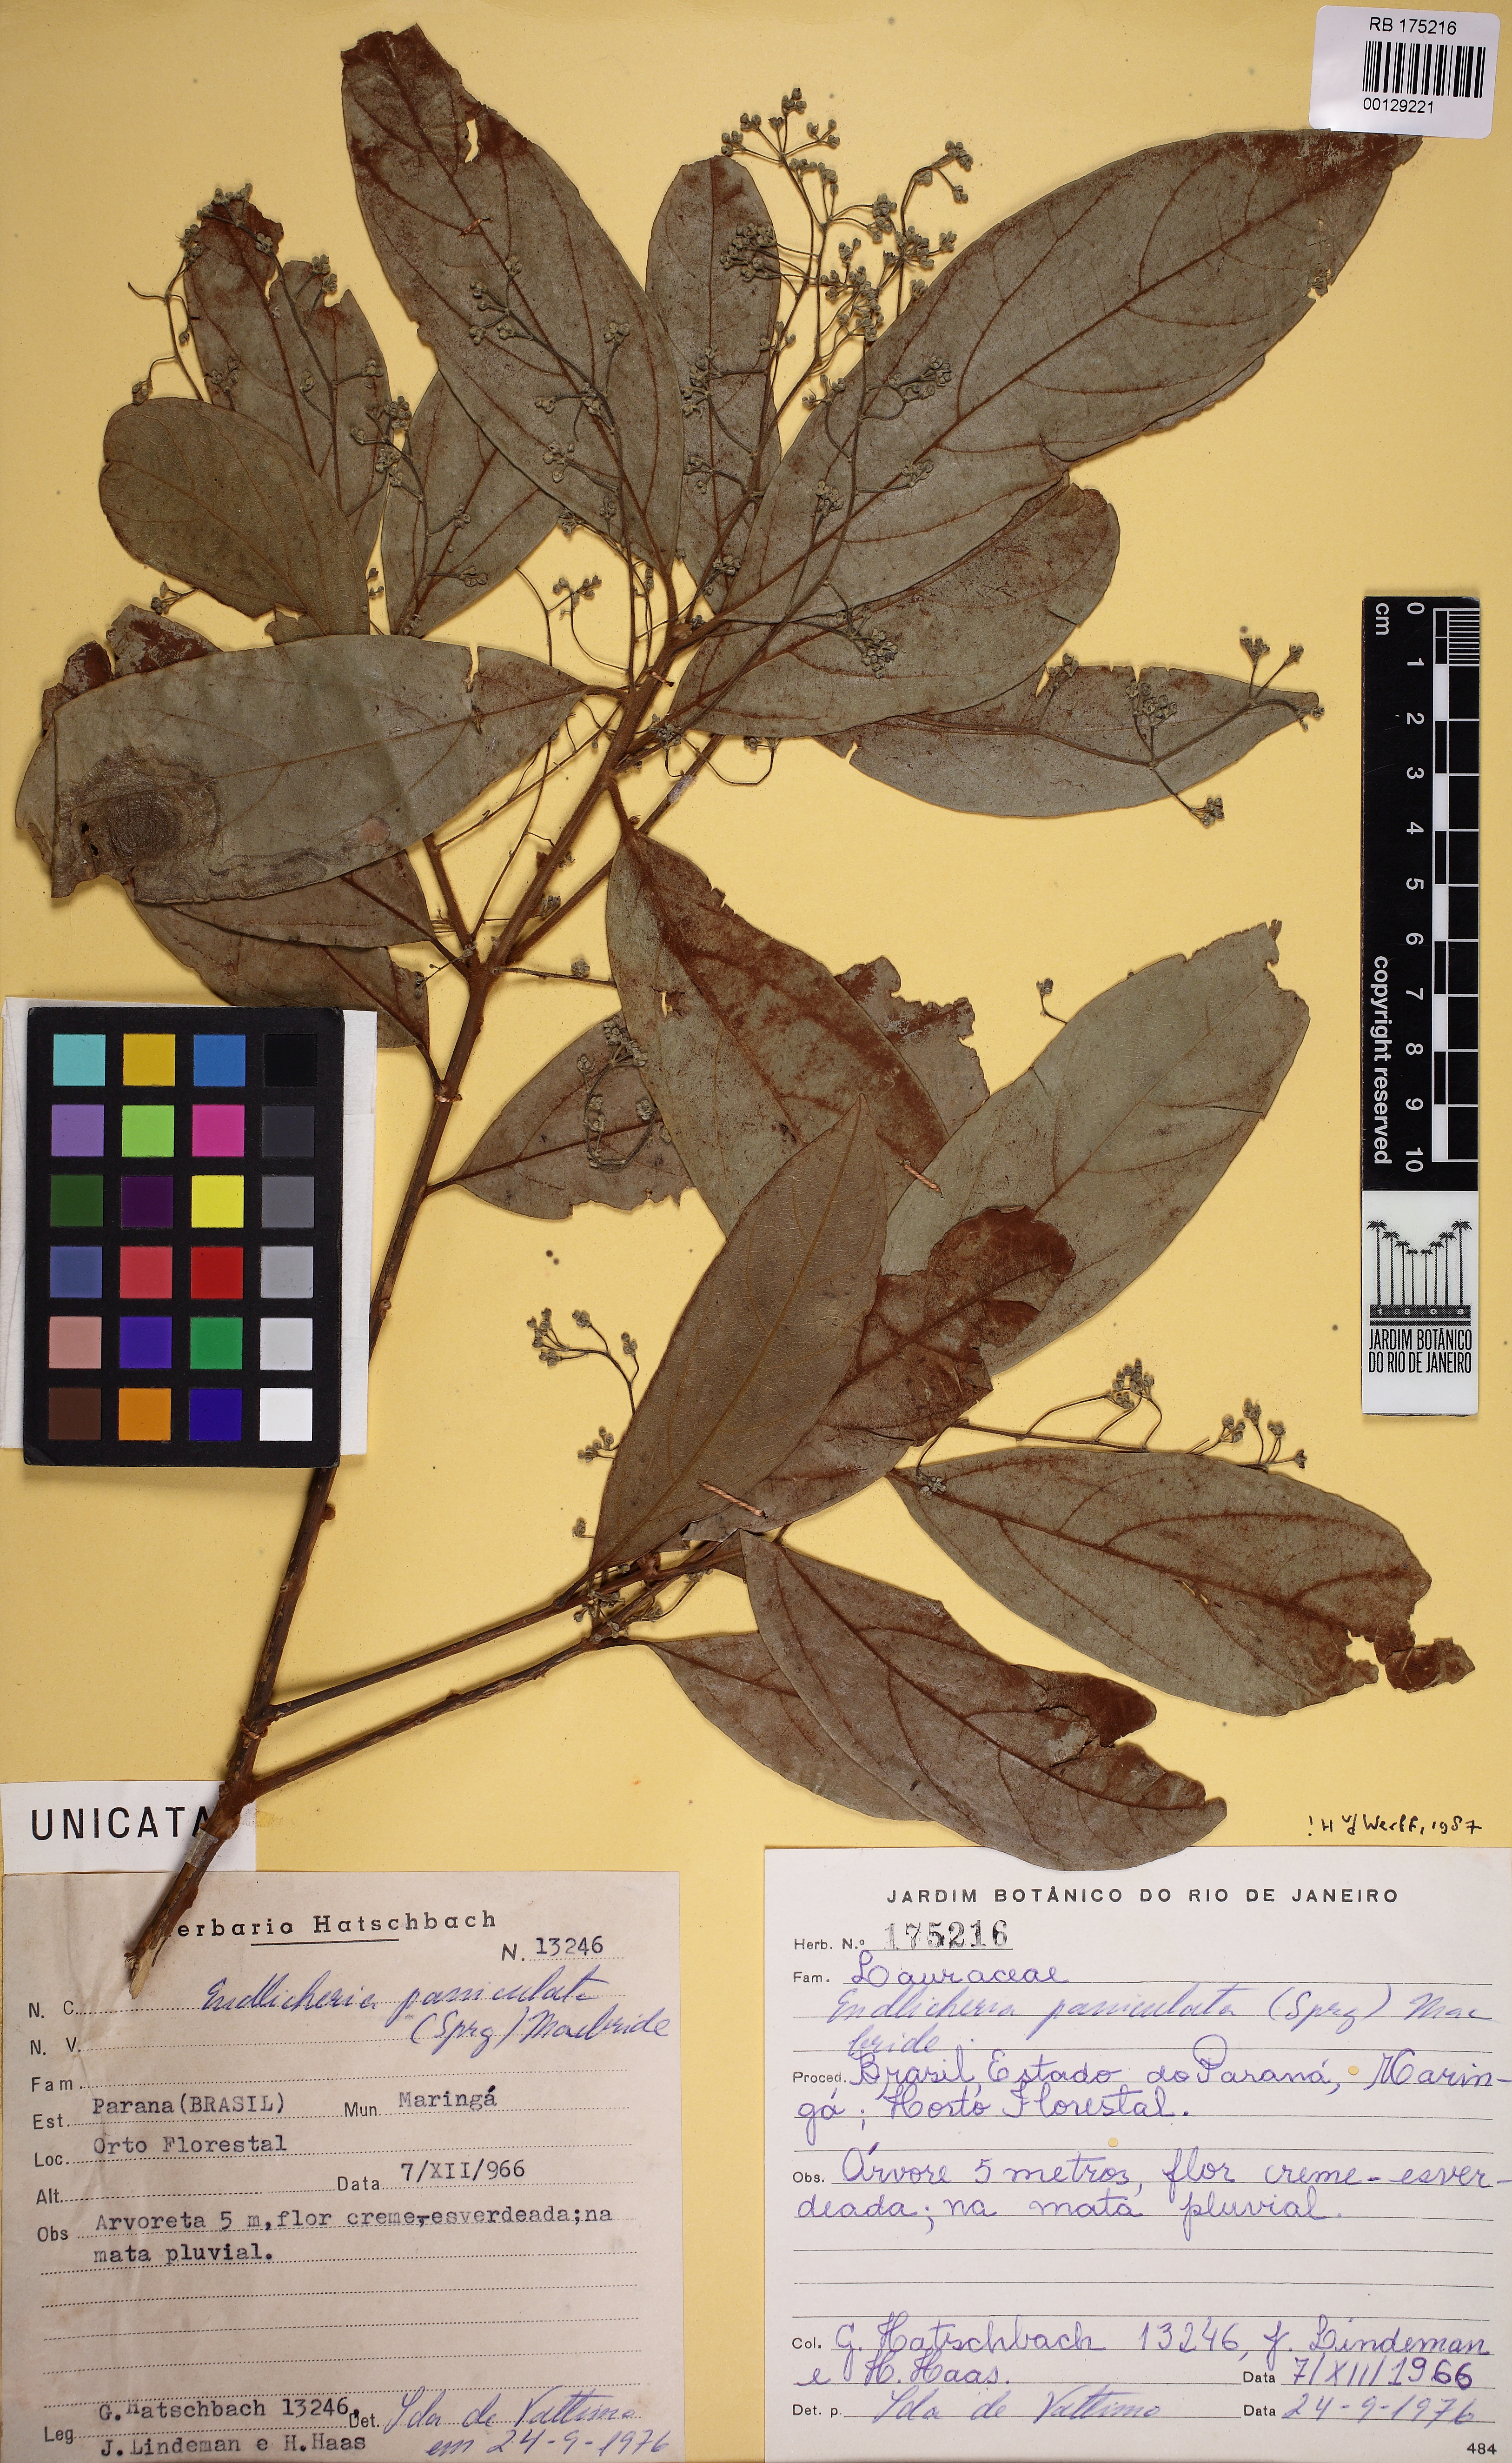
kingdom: Plantae
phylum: Tracheophyta
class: Magnoliopsida
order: Laurales
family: Lauraceae
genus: Endlicheria
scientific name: Endlicheria paniculata
